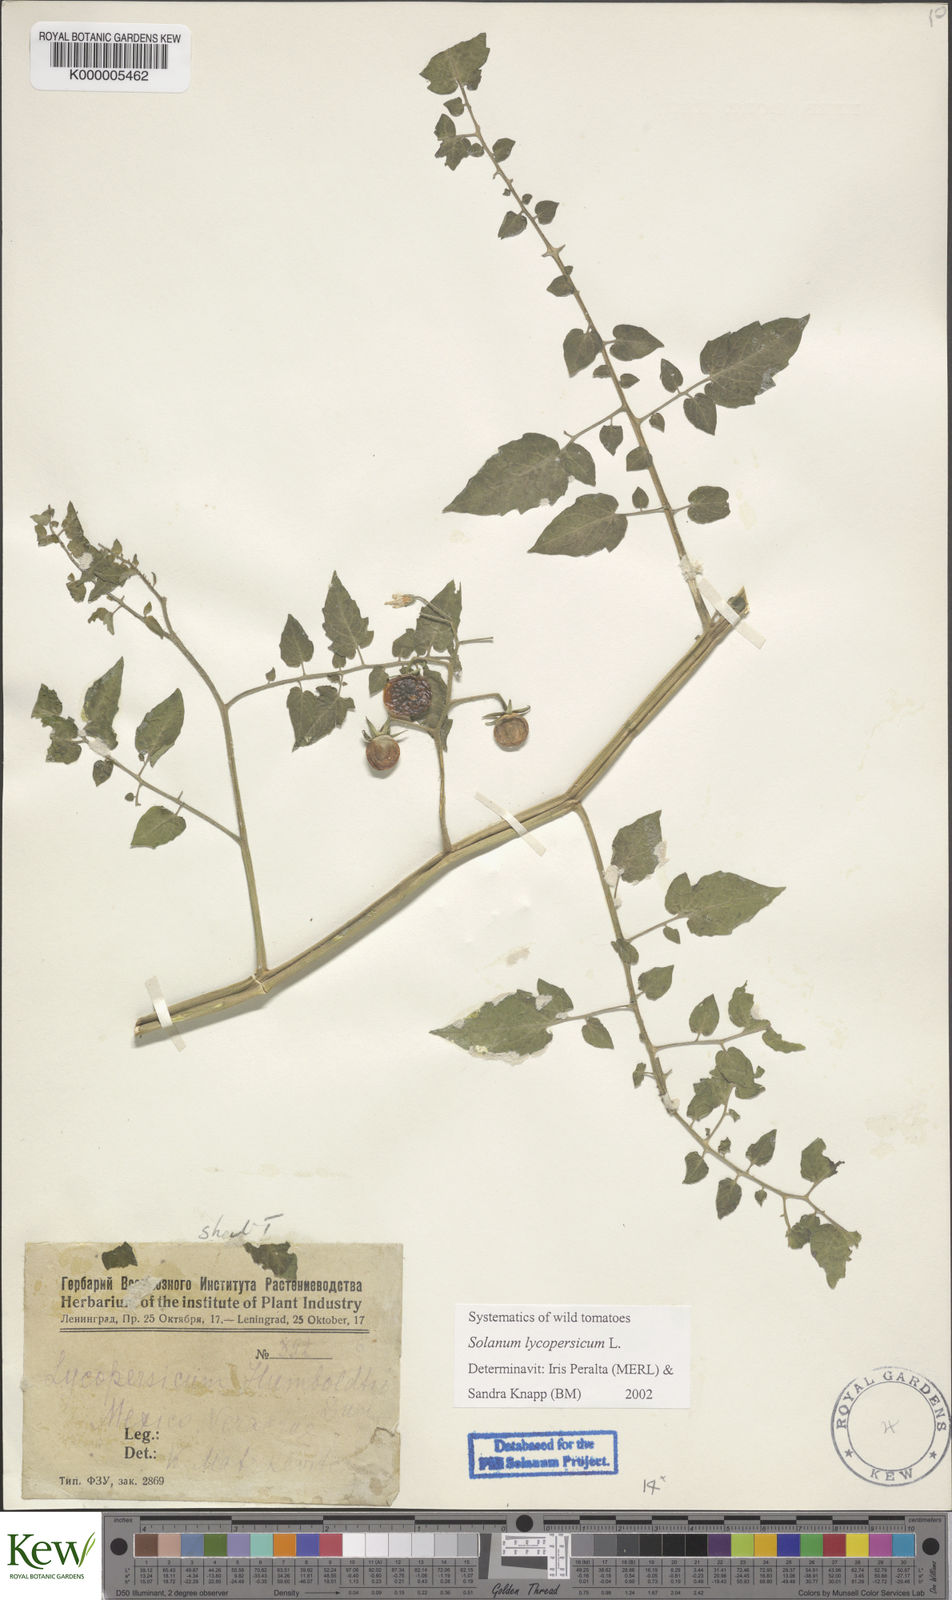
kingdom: Plantae
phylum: Tracheophyta
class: Magnoliopsida
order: Solanales
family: Solanaceae
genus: Solanum
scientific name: Solanum lycopersicum
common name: Garden tomato
